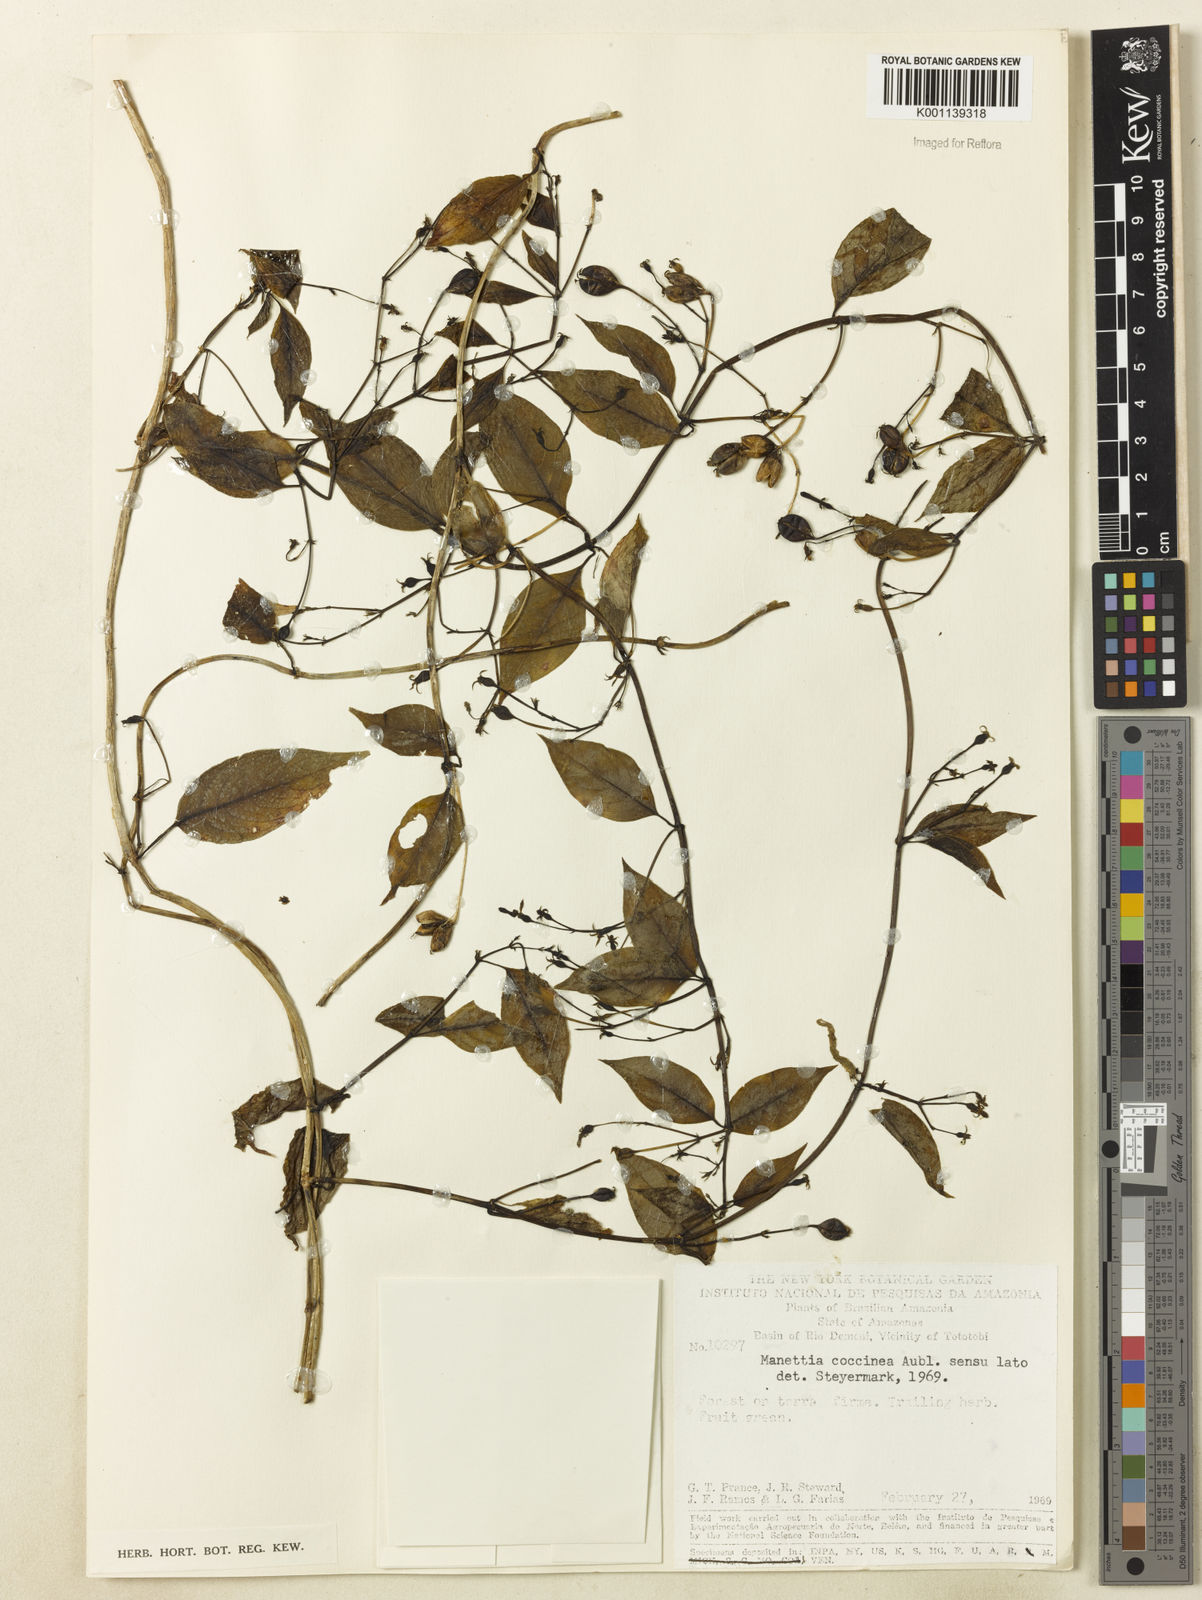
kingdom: Plantae
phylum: Tracheophyta
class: Magnoliopsida
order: Gentianales
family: Rubiaceae
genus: Manettia
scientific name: Manettia
